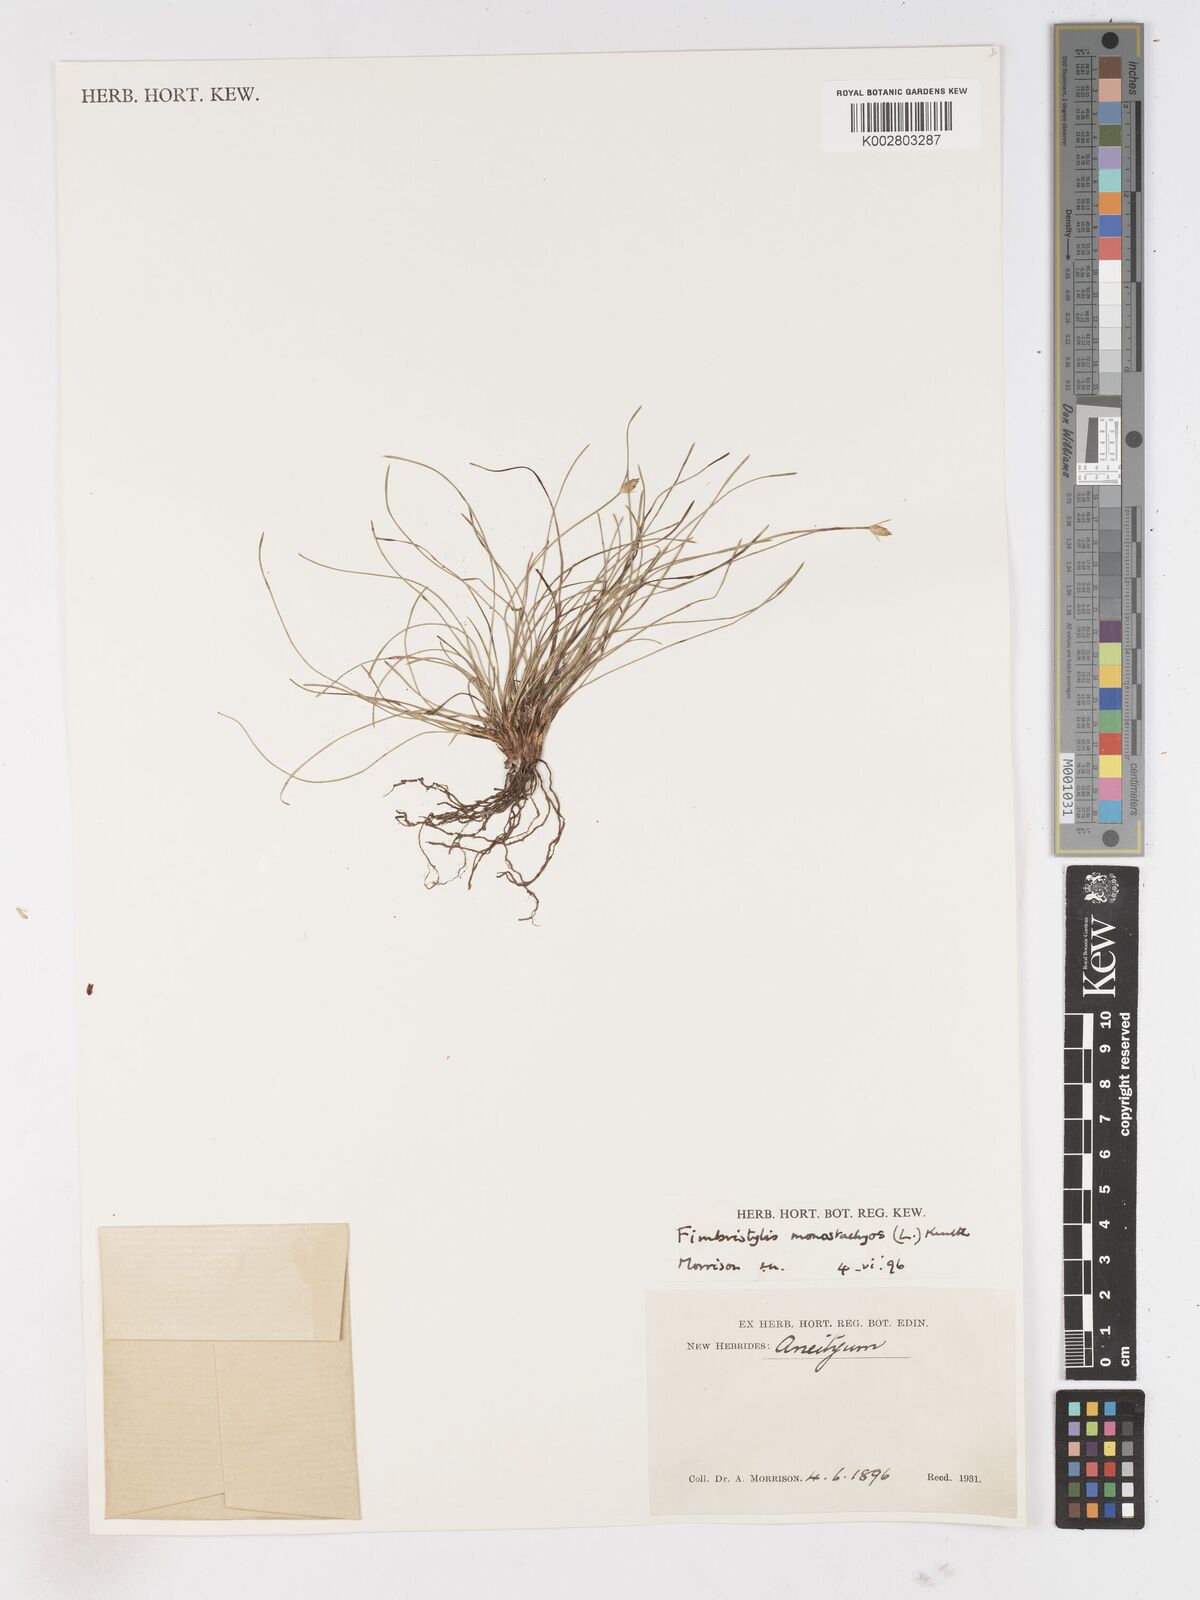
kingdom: Plantae
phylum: Tracheophyta
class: Liliopsida
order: Poales
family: Cyperaceae
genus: Abildgaardia
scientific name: Abildgaardia ovata
